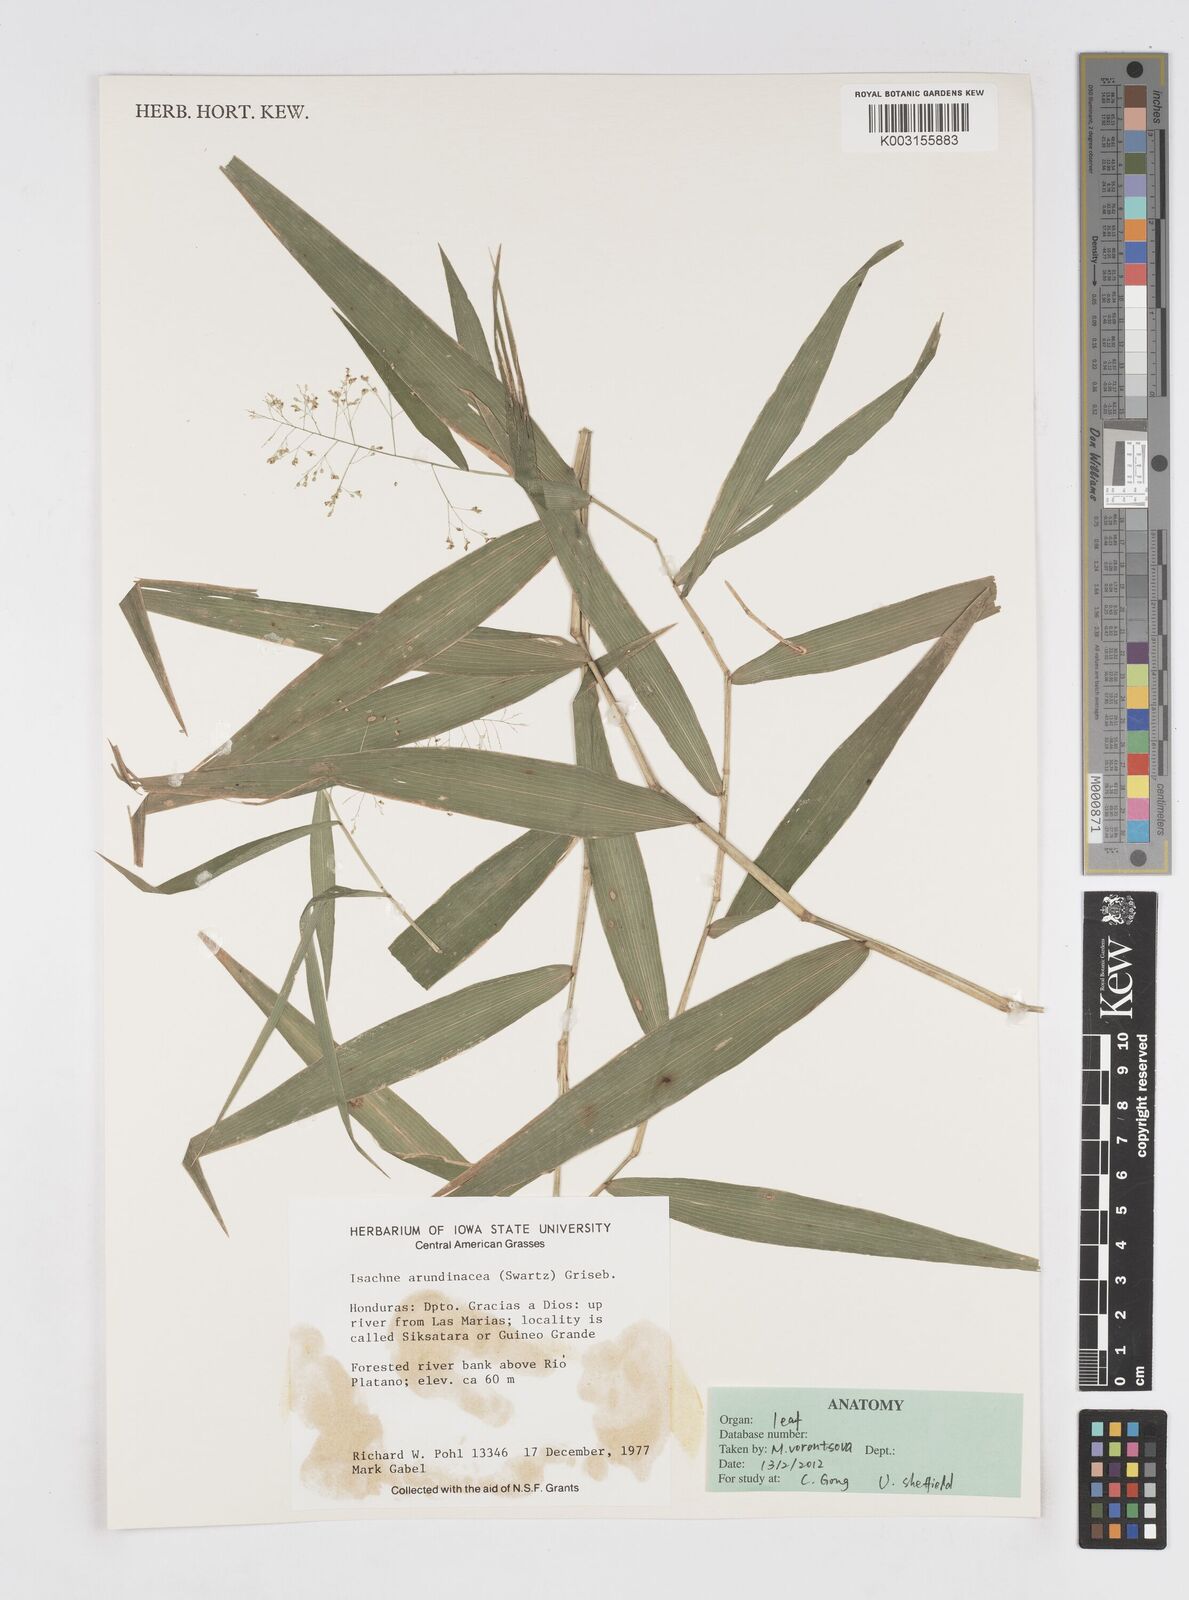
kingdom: Plantae
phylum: Tracheophyta
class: Liliopsida
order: Poales
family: Poaceae
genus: Isachne
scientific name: Isachne arundinacea
